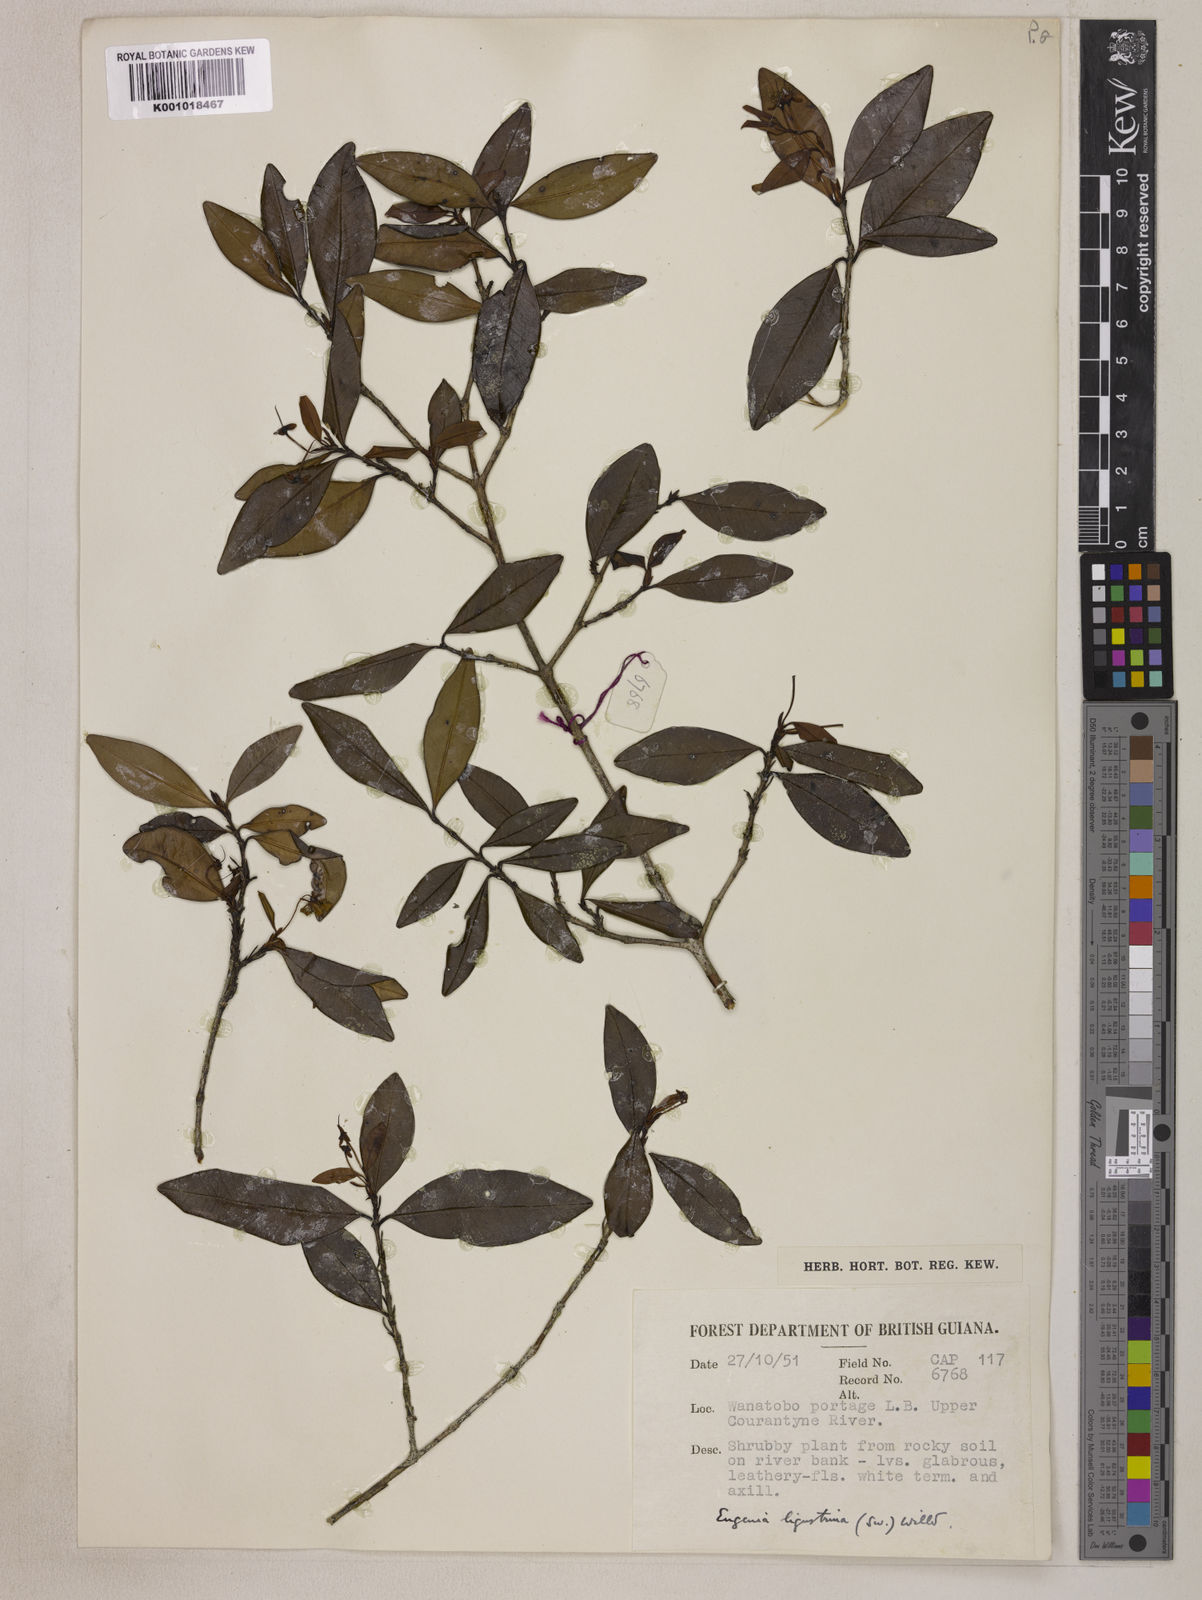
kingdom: Plantae
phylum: Tracheophyta
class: Magnoliopsida
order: Myrtales
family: Myrtaceae
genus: Eugenia
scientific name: Eugenia ligustrina
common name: Privet stopper
